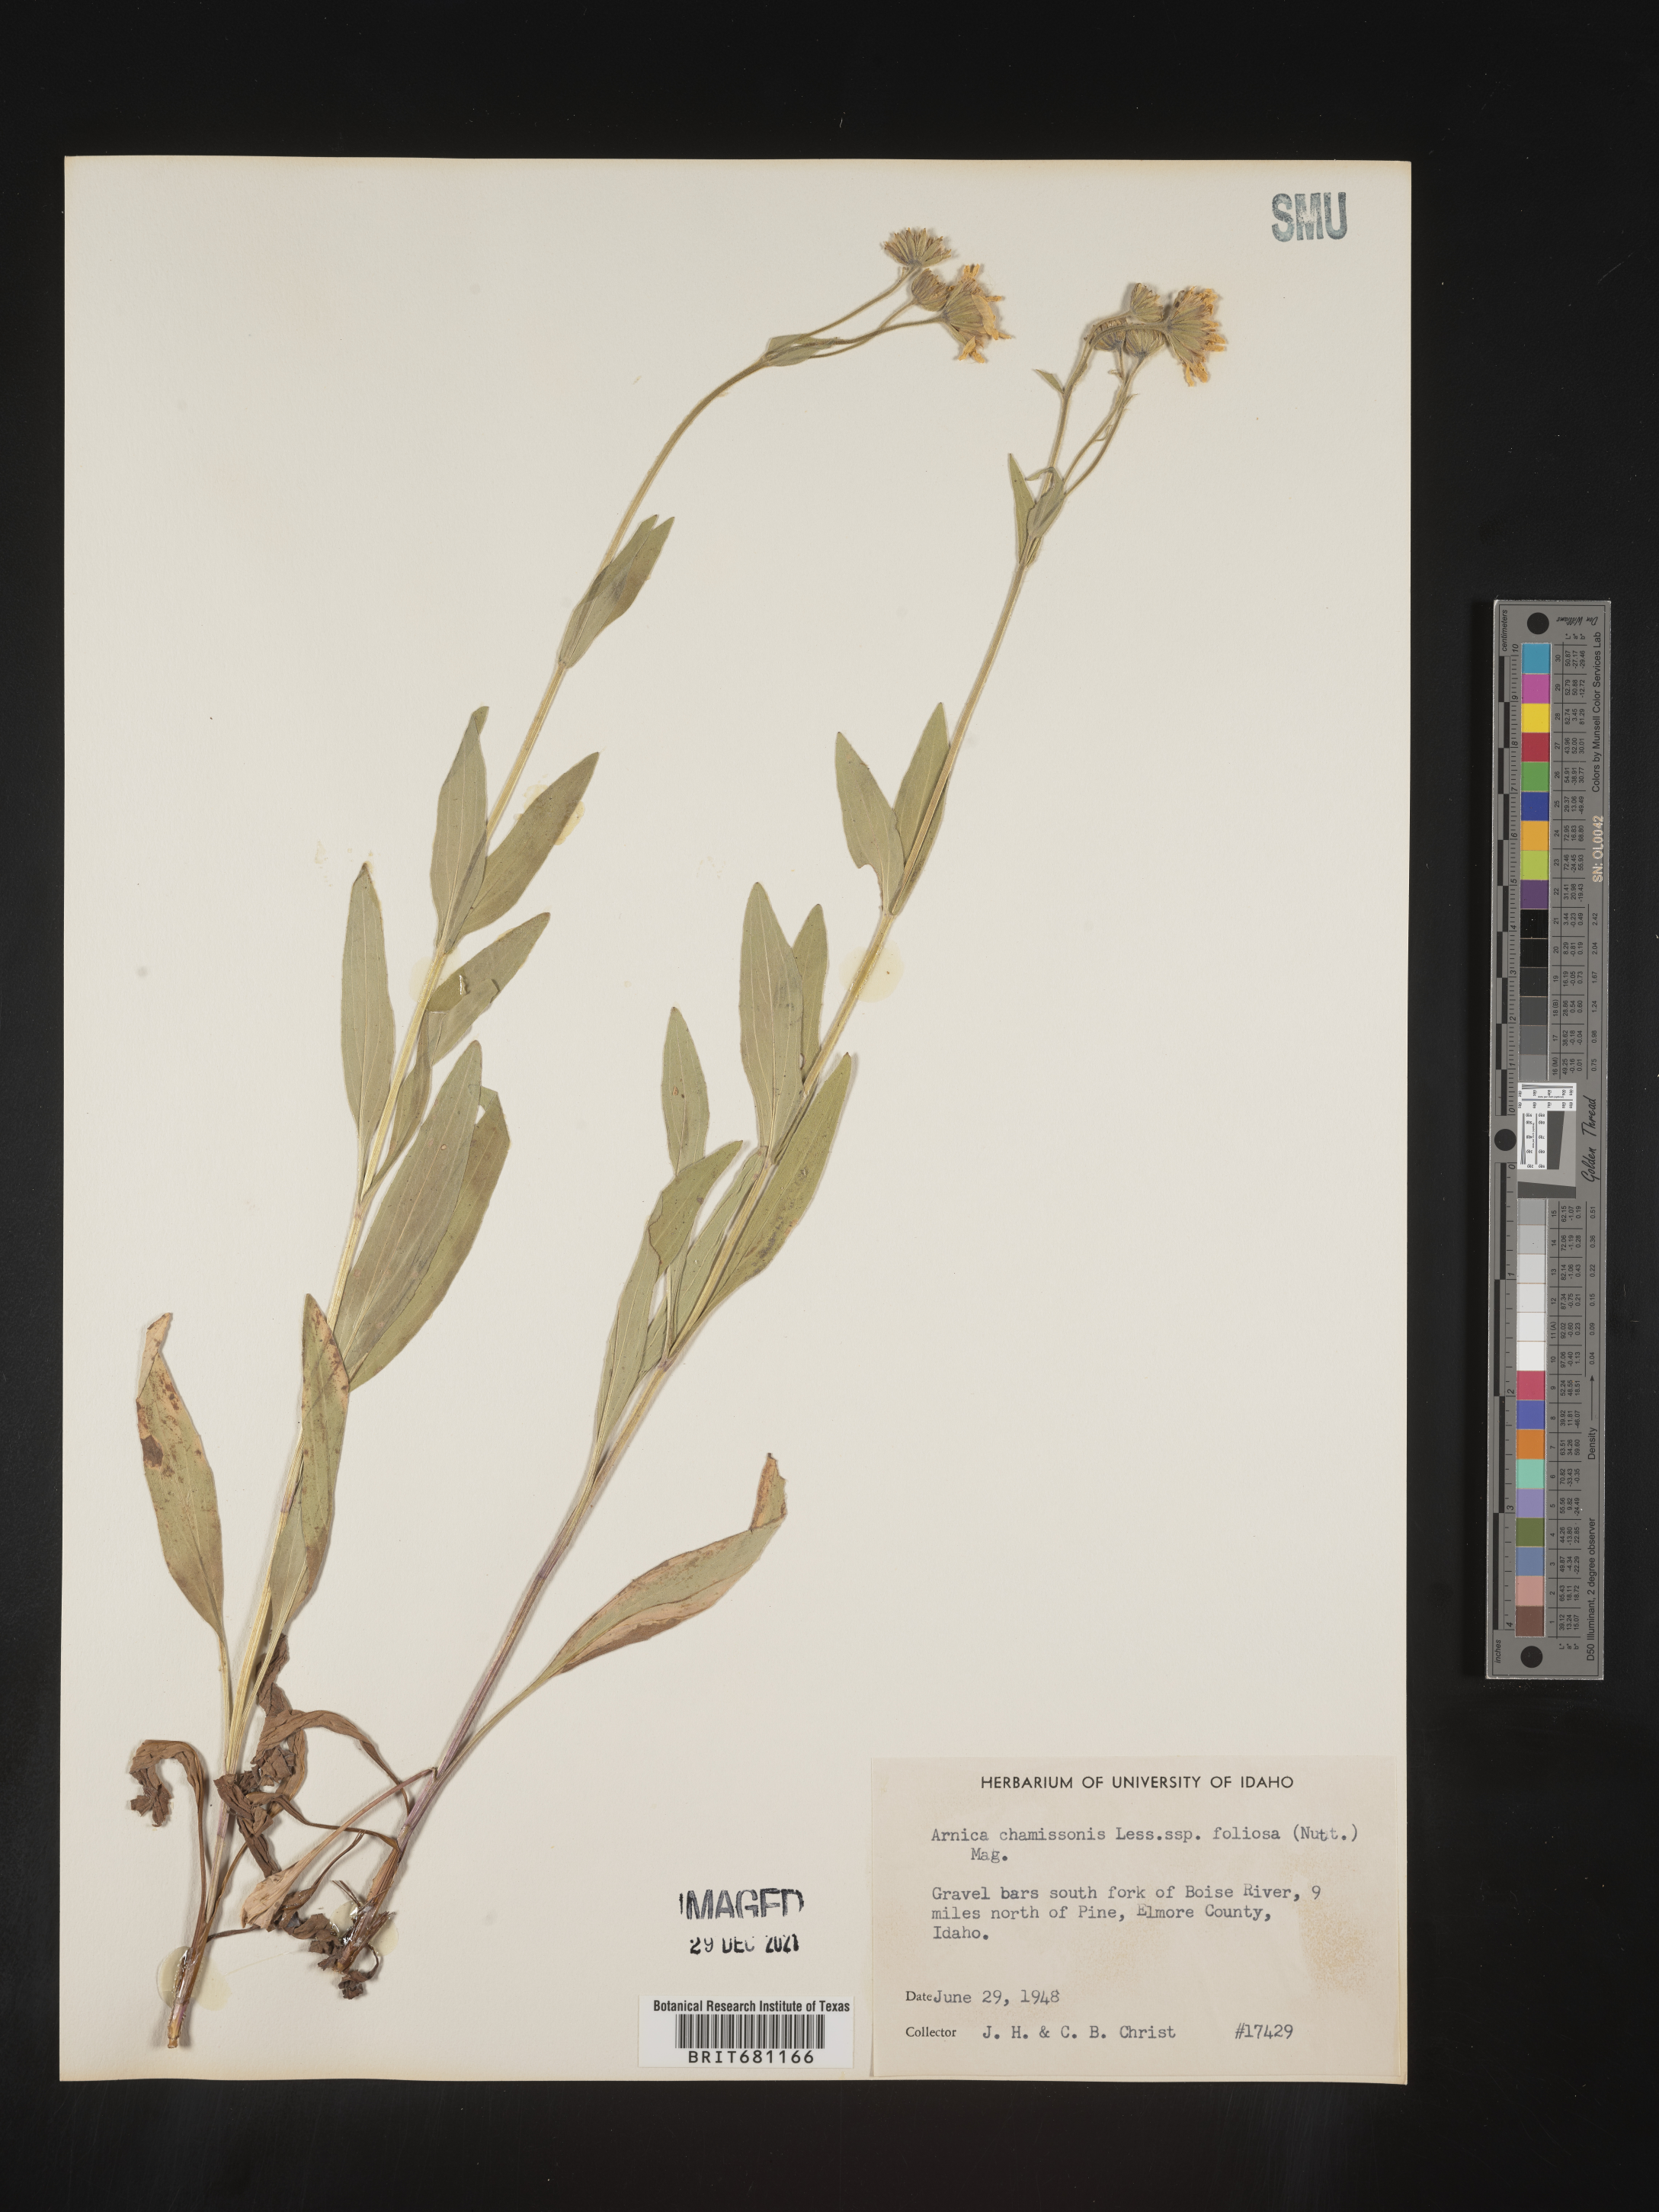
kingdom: Plantae
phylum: Tracheophyta
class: Magnoliopsida
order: Asterales
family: Asteraceae
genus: Arnica
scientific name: Arnica chamissonis
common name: Leafy arnica
